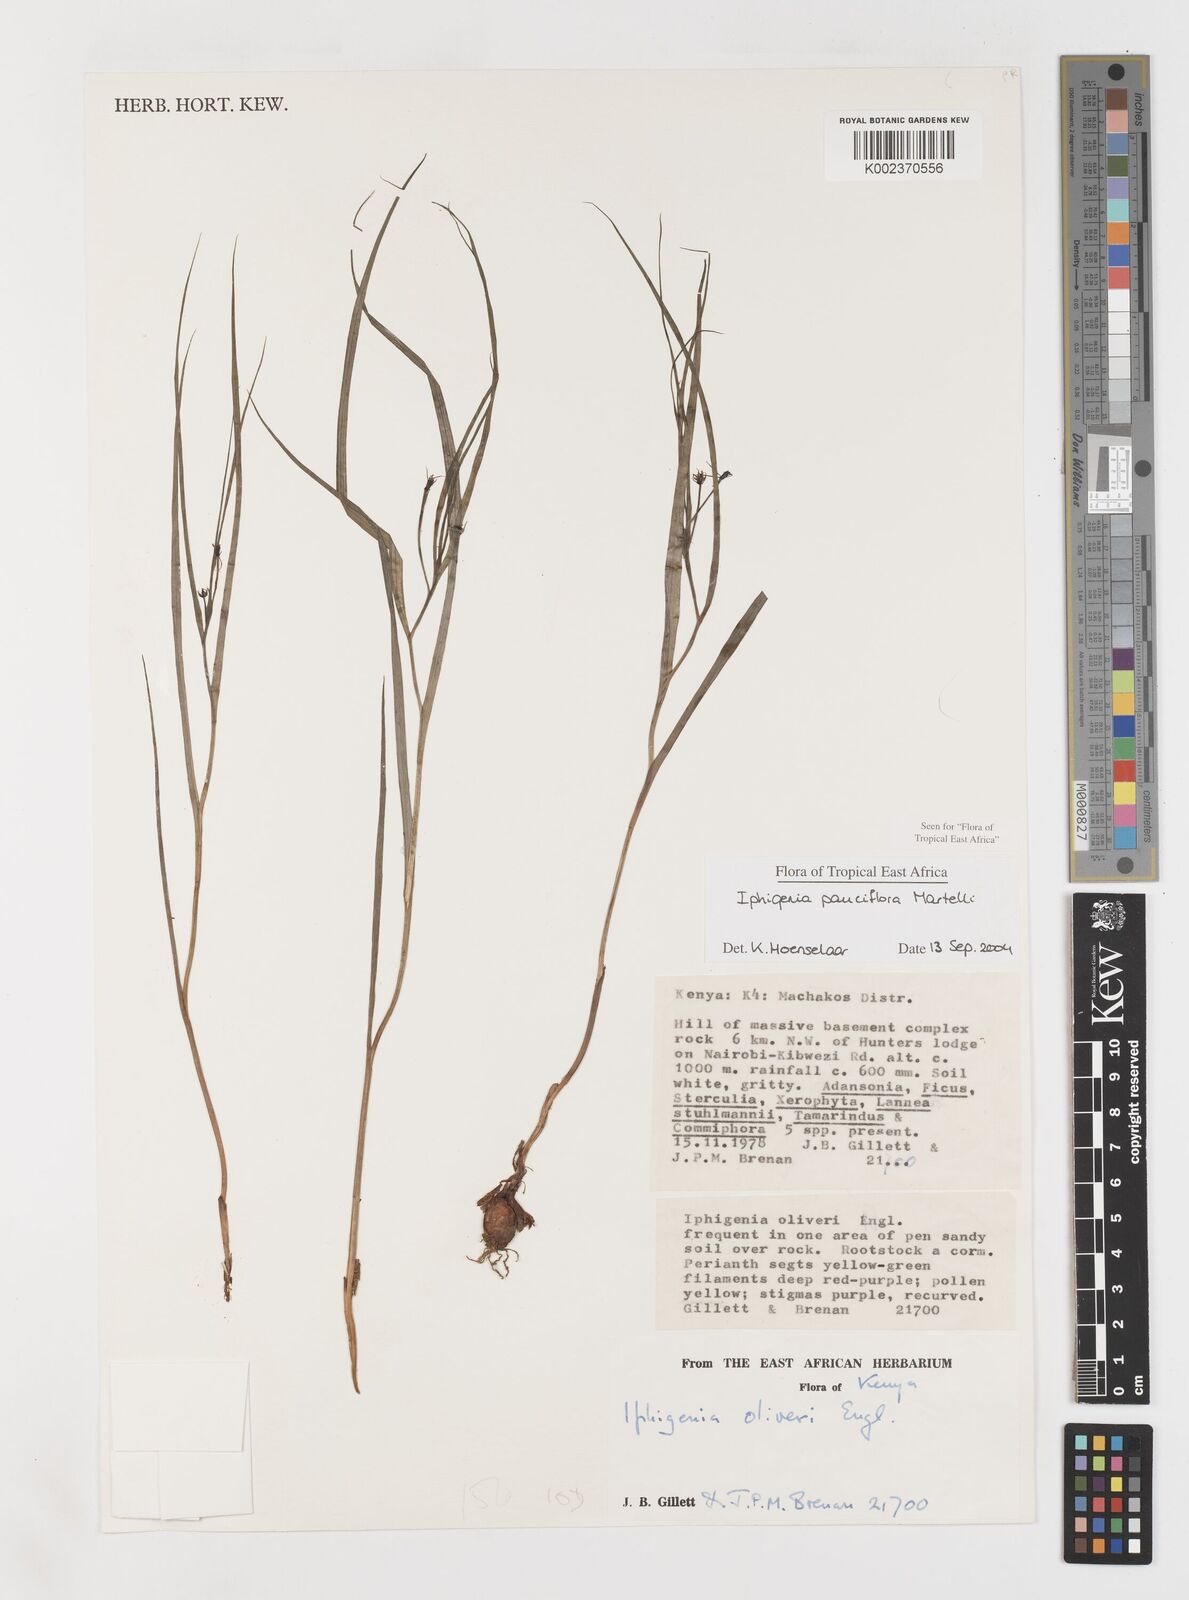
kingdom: Plantae
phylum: Tracheophyta
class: Liliopsida
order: Liliales
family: Colchicaceae
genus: Iphigenia
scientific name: Iphigenia pauciflora
